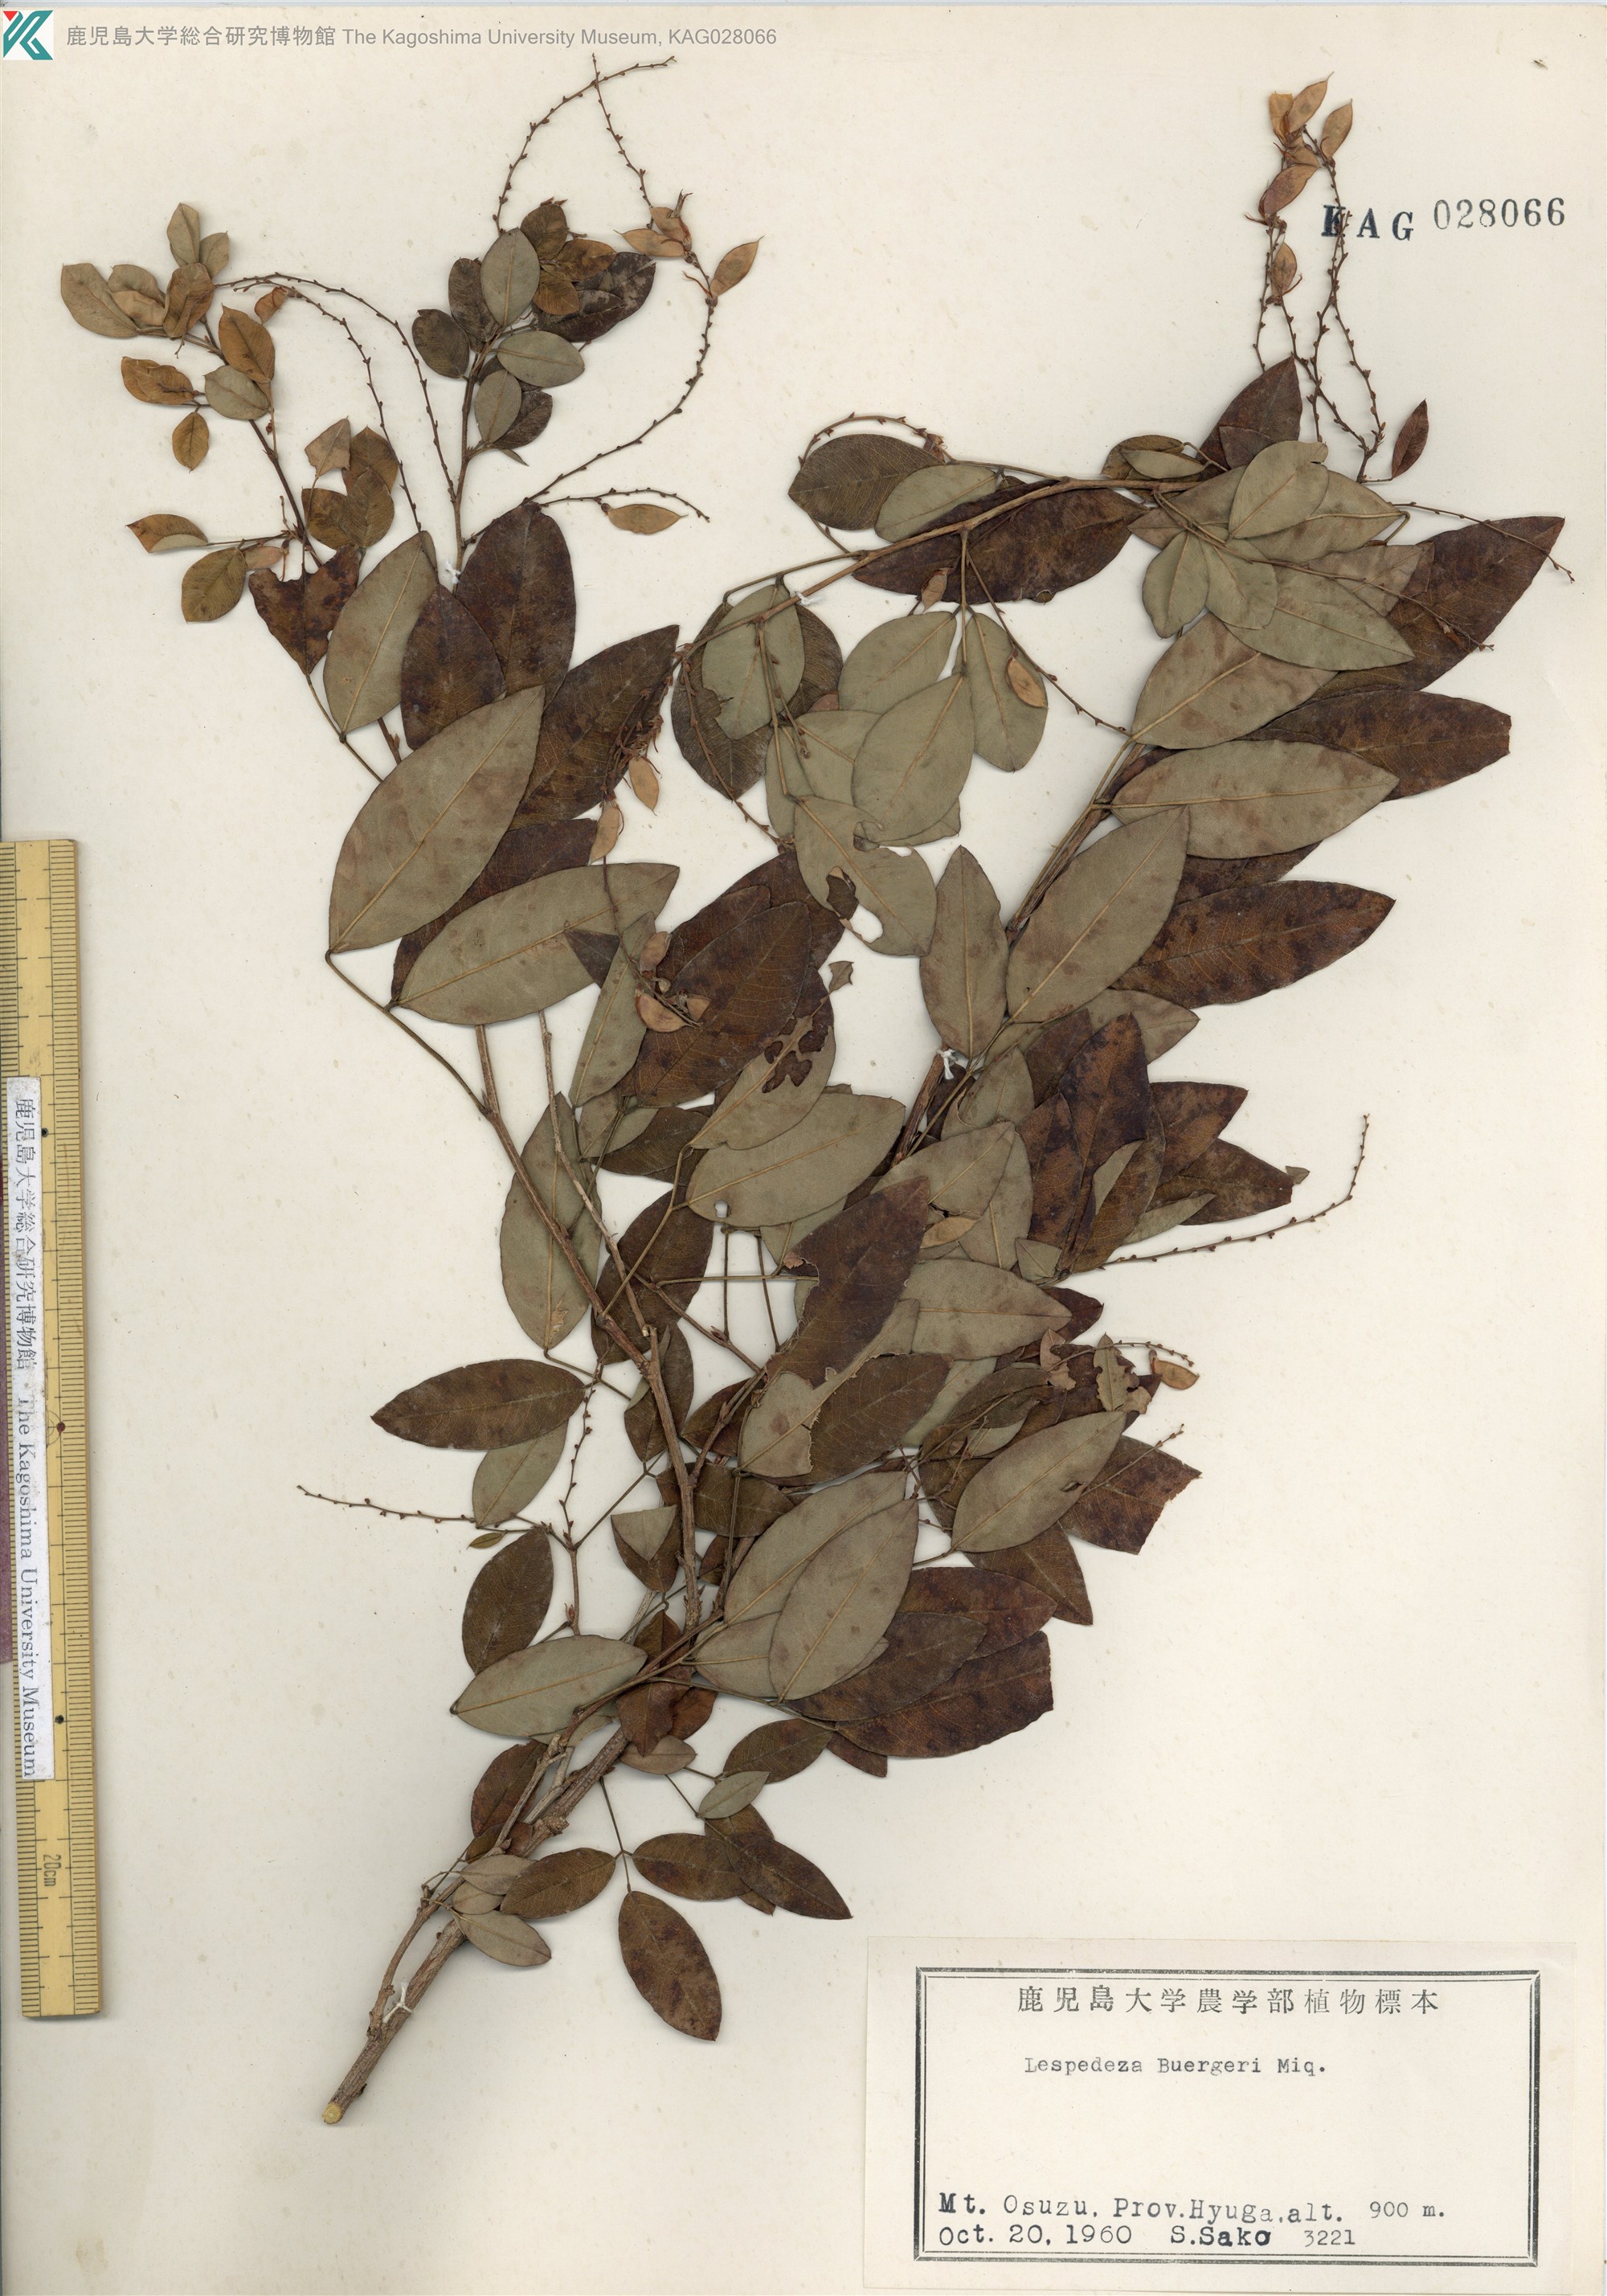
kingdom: Plantae
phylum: Tracheophyta
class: Magnoliopsida
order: Fabales
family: Fabaceae
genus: Lespedeza
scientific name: Lespedeza buergeri
